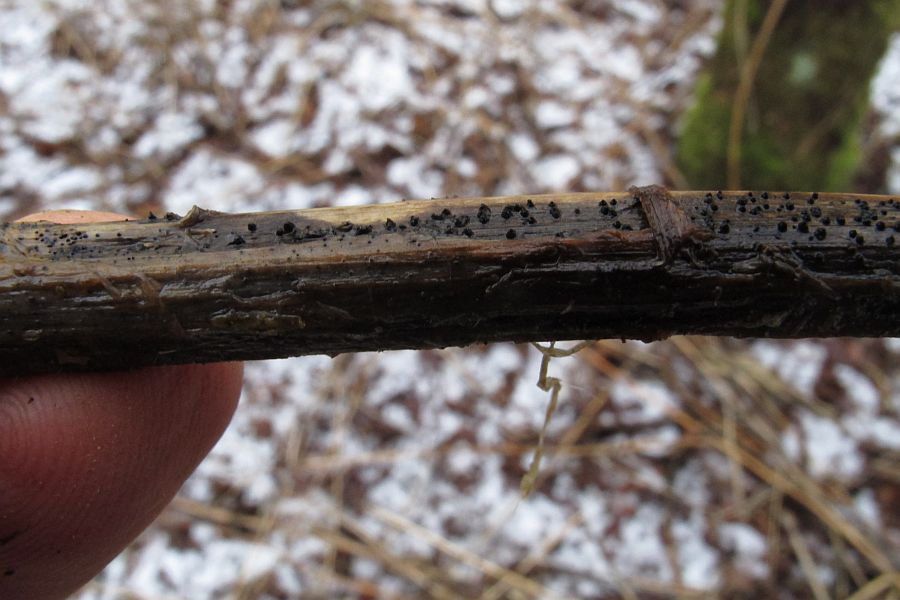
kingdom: Fungi
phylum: Ascomycota
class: Dothideomycetes
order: Pleosporales
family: Leptosphaeriaceae
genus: Leptosphaeria
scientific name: Leptosphaeria acuta
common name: spids kulkegle
